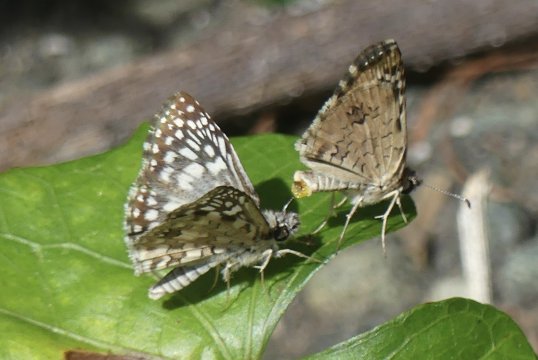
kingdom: Animalia
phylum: Arthropoda
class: Insecta
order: Lepidoptera
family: Hesperiidae
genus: Pyrgus
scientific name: Pyrgus oileus
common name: Tropical Checkered Skipper
